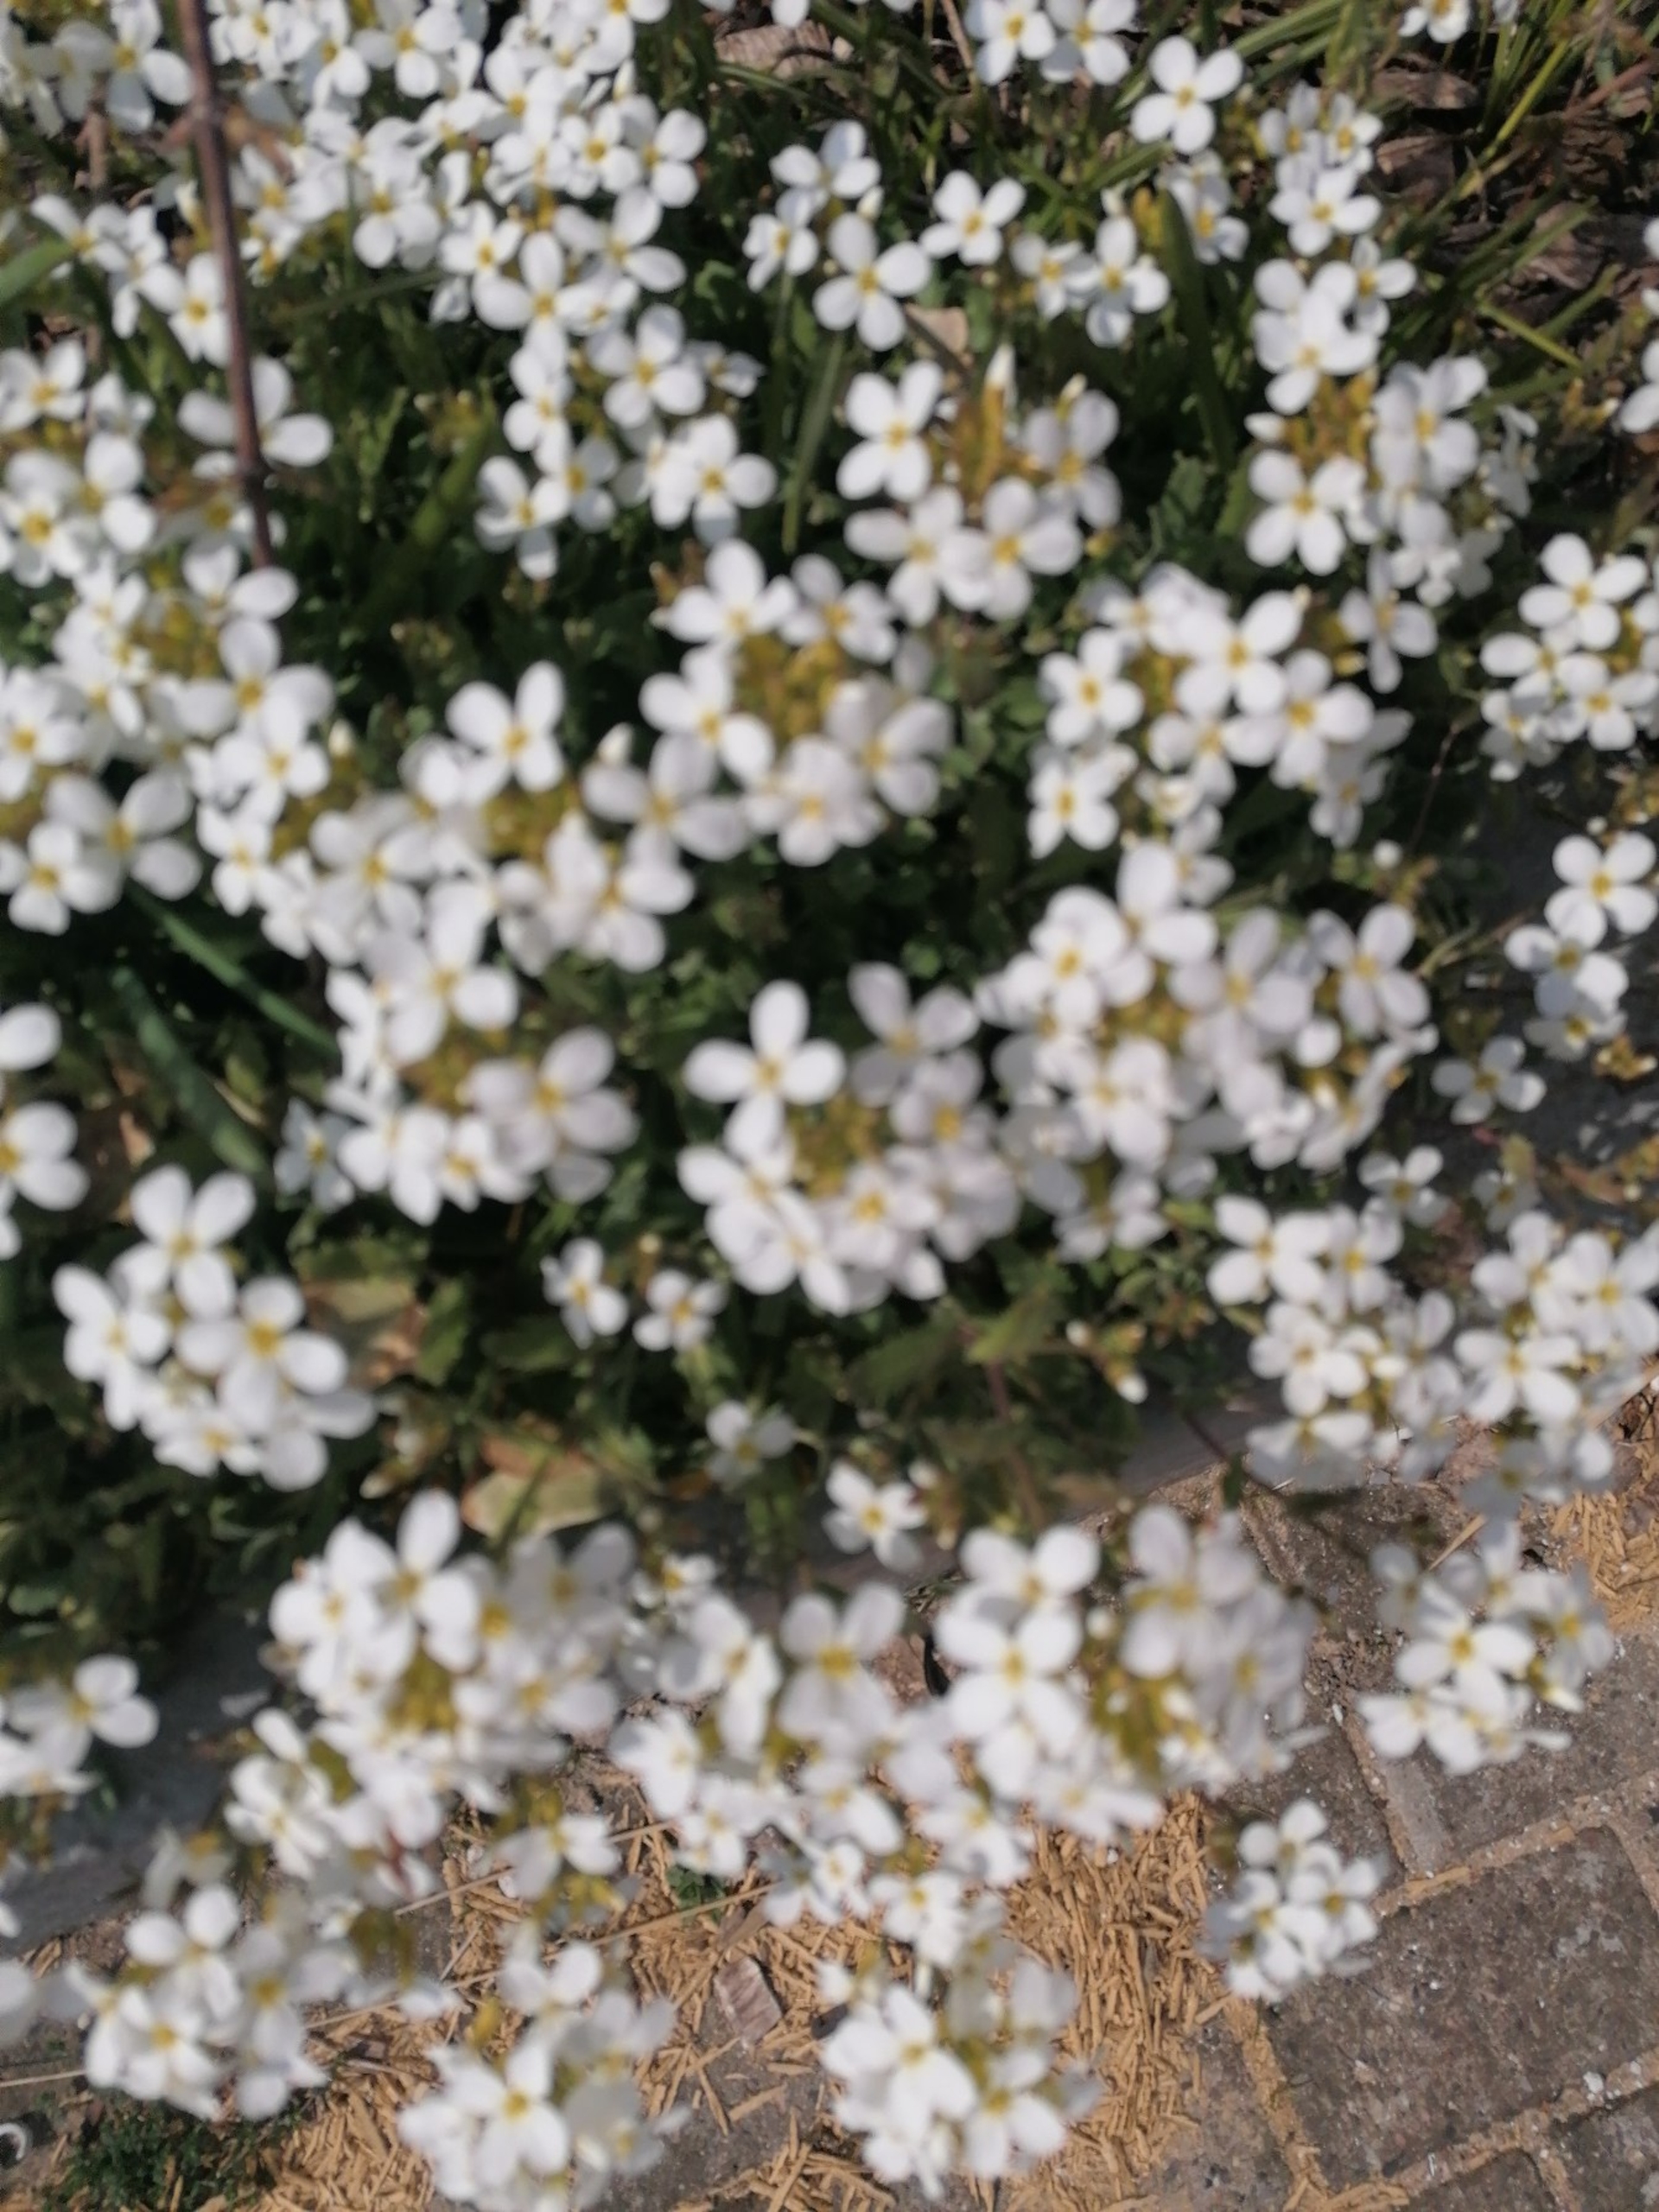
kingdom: Plantae
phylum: Tracheophyta
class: Magnoliopsida
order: Brassicales
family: Brassicaceae
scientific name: Brassicaceae
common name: Korsblomstfamilien
